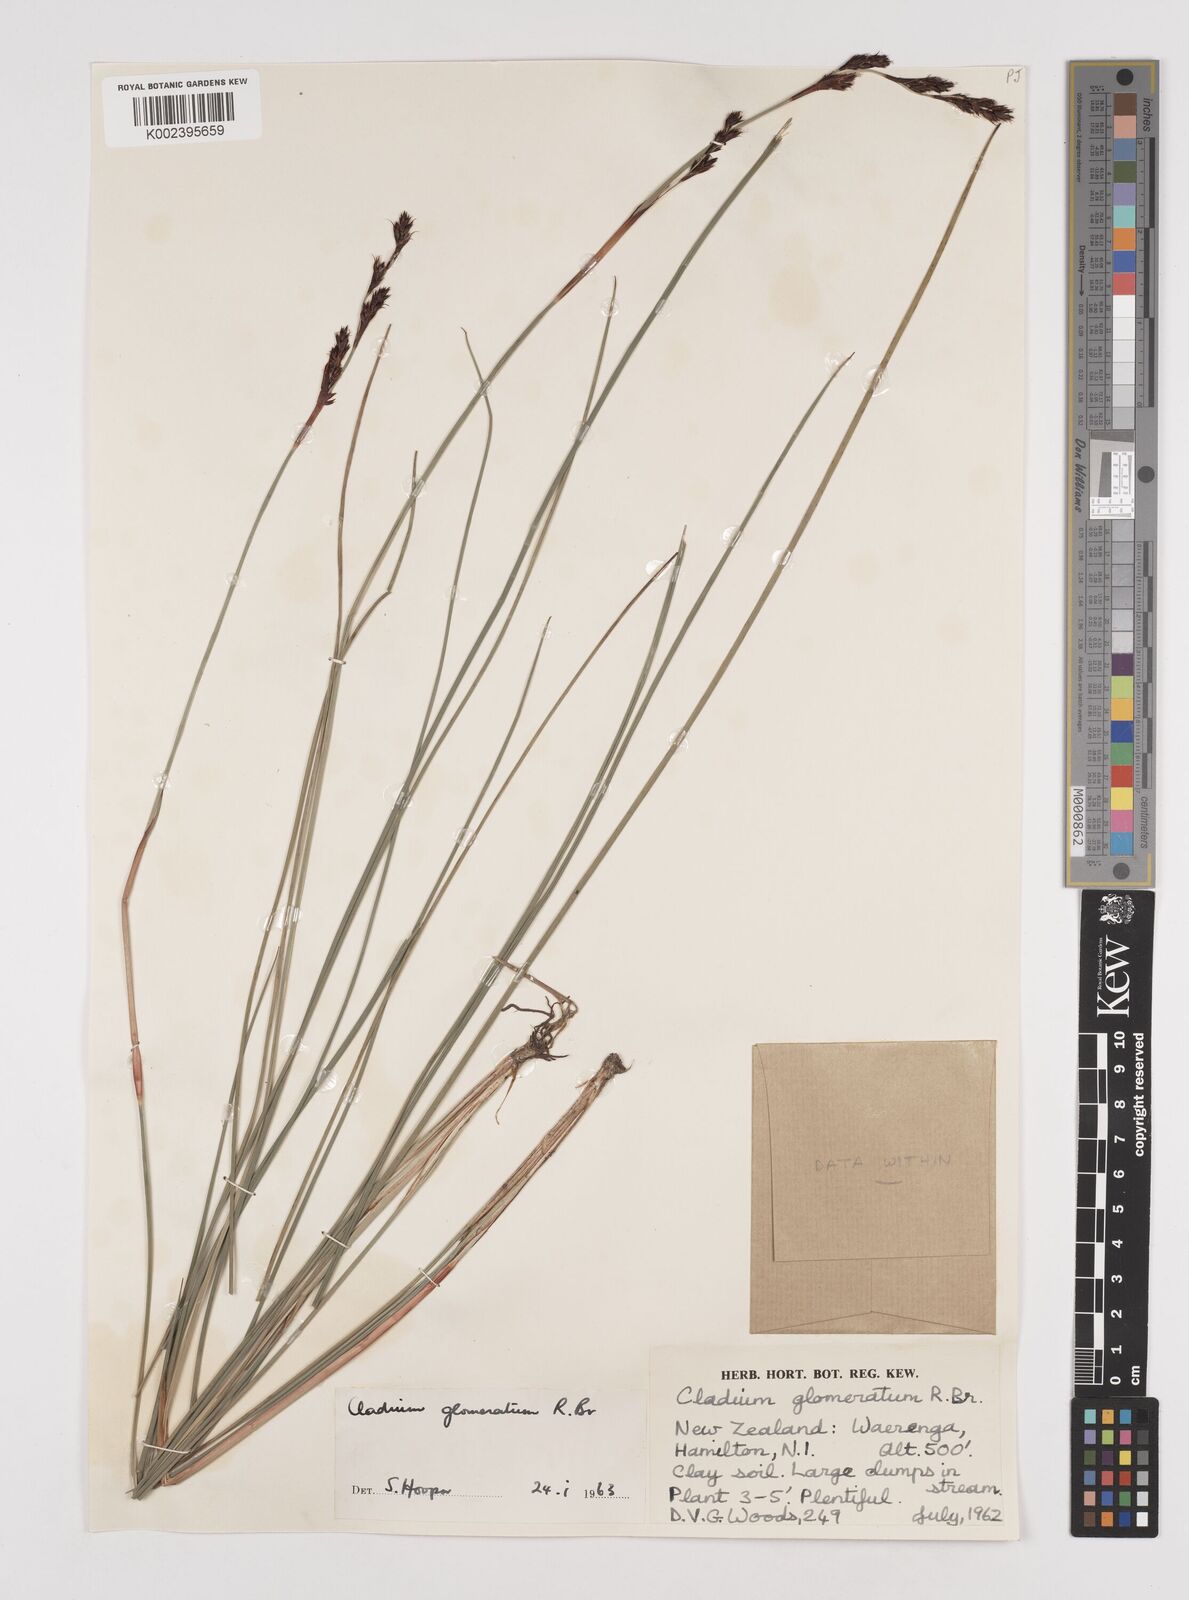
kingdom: Plantae
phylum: Tracheophyta
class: Liliopsida
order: Poales
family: Cyperaceae
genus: Machaerina
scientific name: Machaerina rubiginosa
